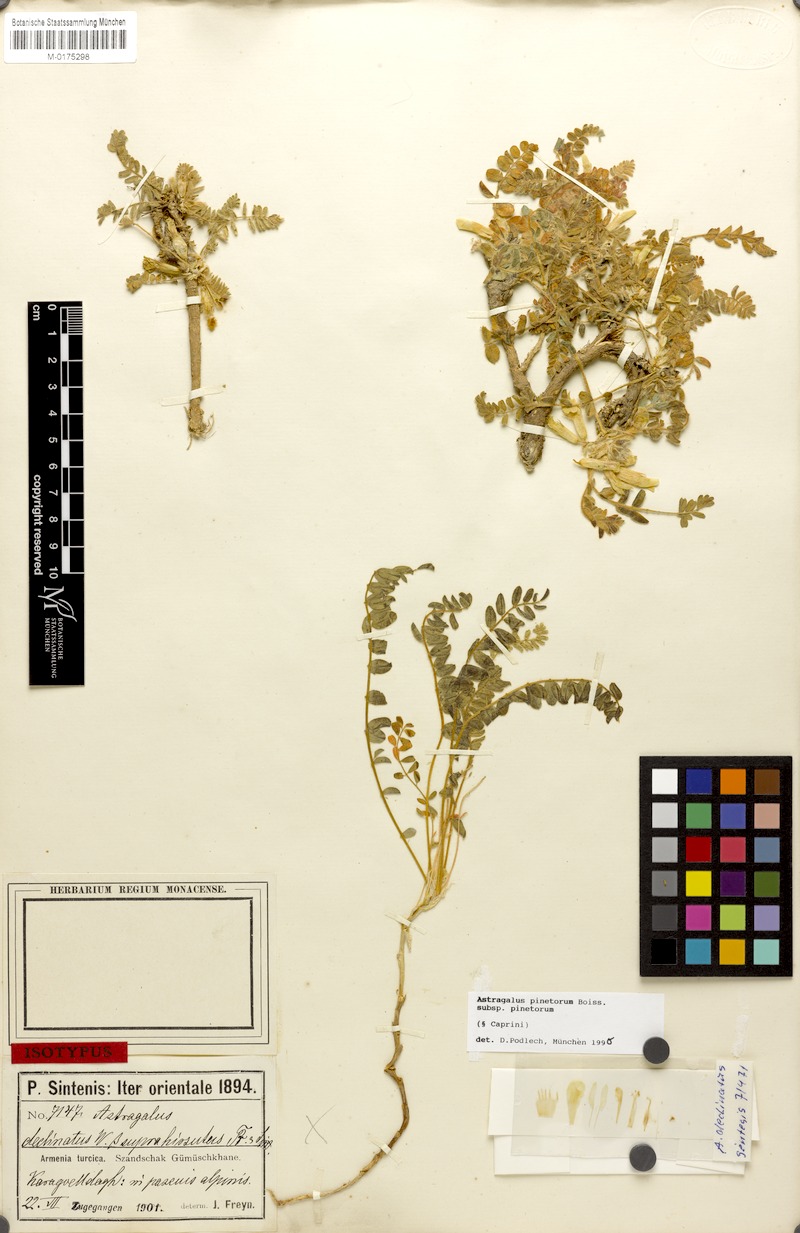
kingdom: Plantae
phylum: Tracheophyta
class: Magnoliopsida
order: Fabales
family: Fabaceae
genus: Astragalus
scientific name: Astragalus pinetorum
